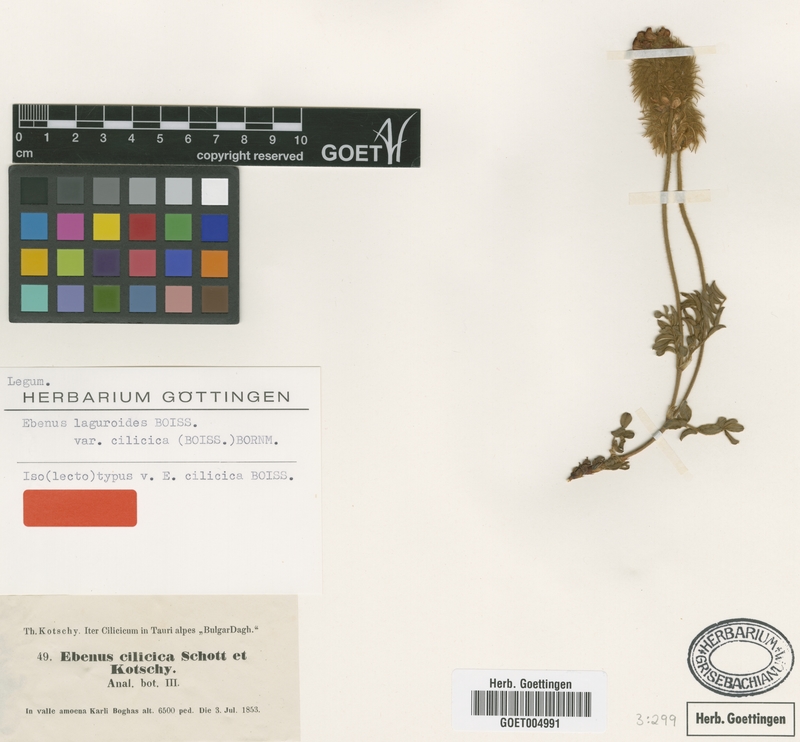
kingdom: Plantae
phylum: Tracheophyta
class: Magnoliopsida
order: Fabales
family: Fabaceae
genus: Ebenus
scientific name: Ebenus laguroides
